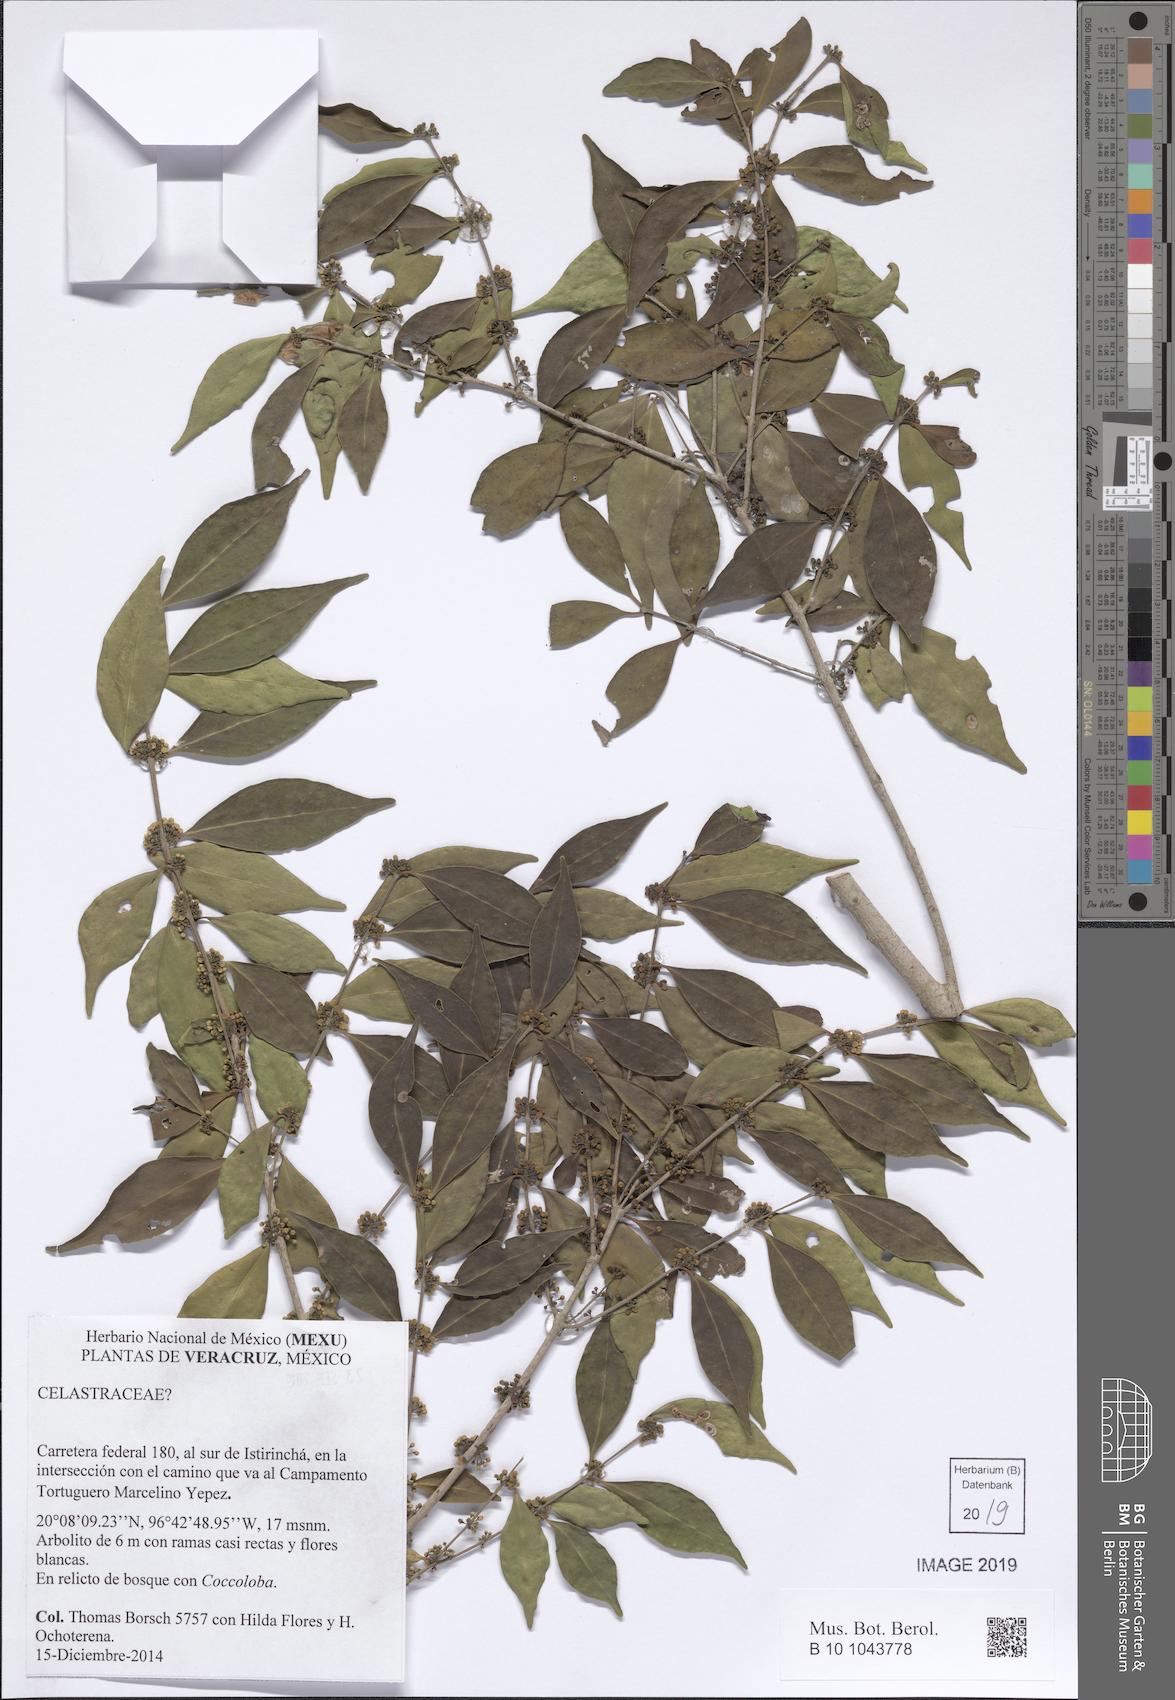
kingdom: Plantae
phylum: Tracheophyta
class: Magnoliopsida
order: Celastrales
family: Celastraceae
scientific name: Celastraceae
